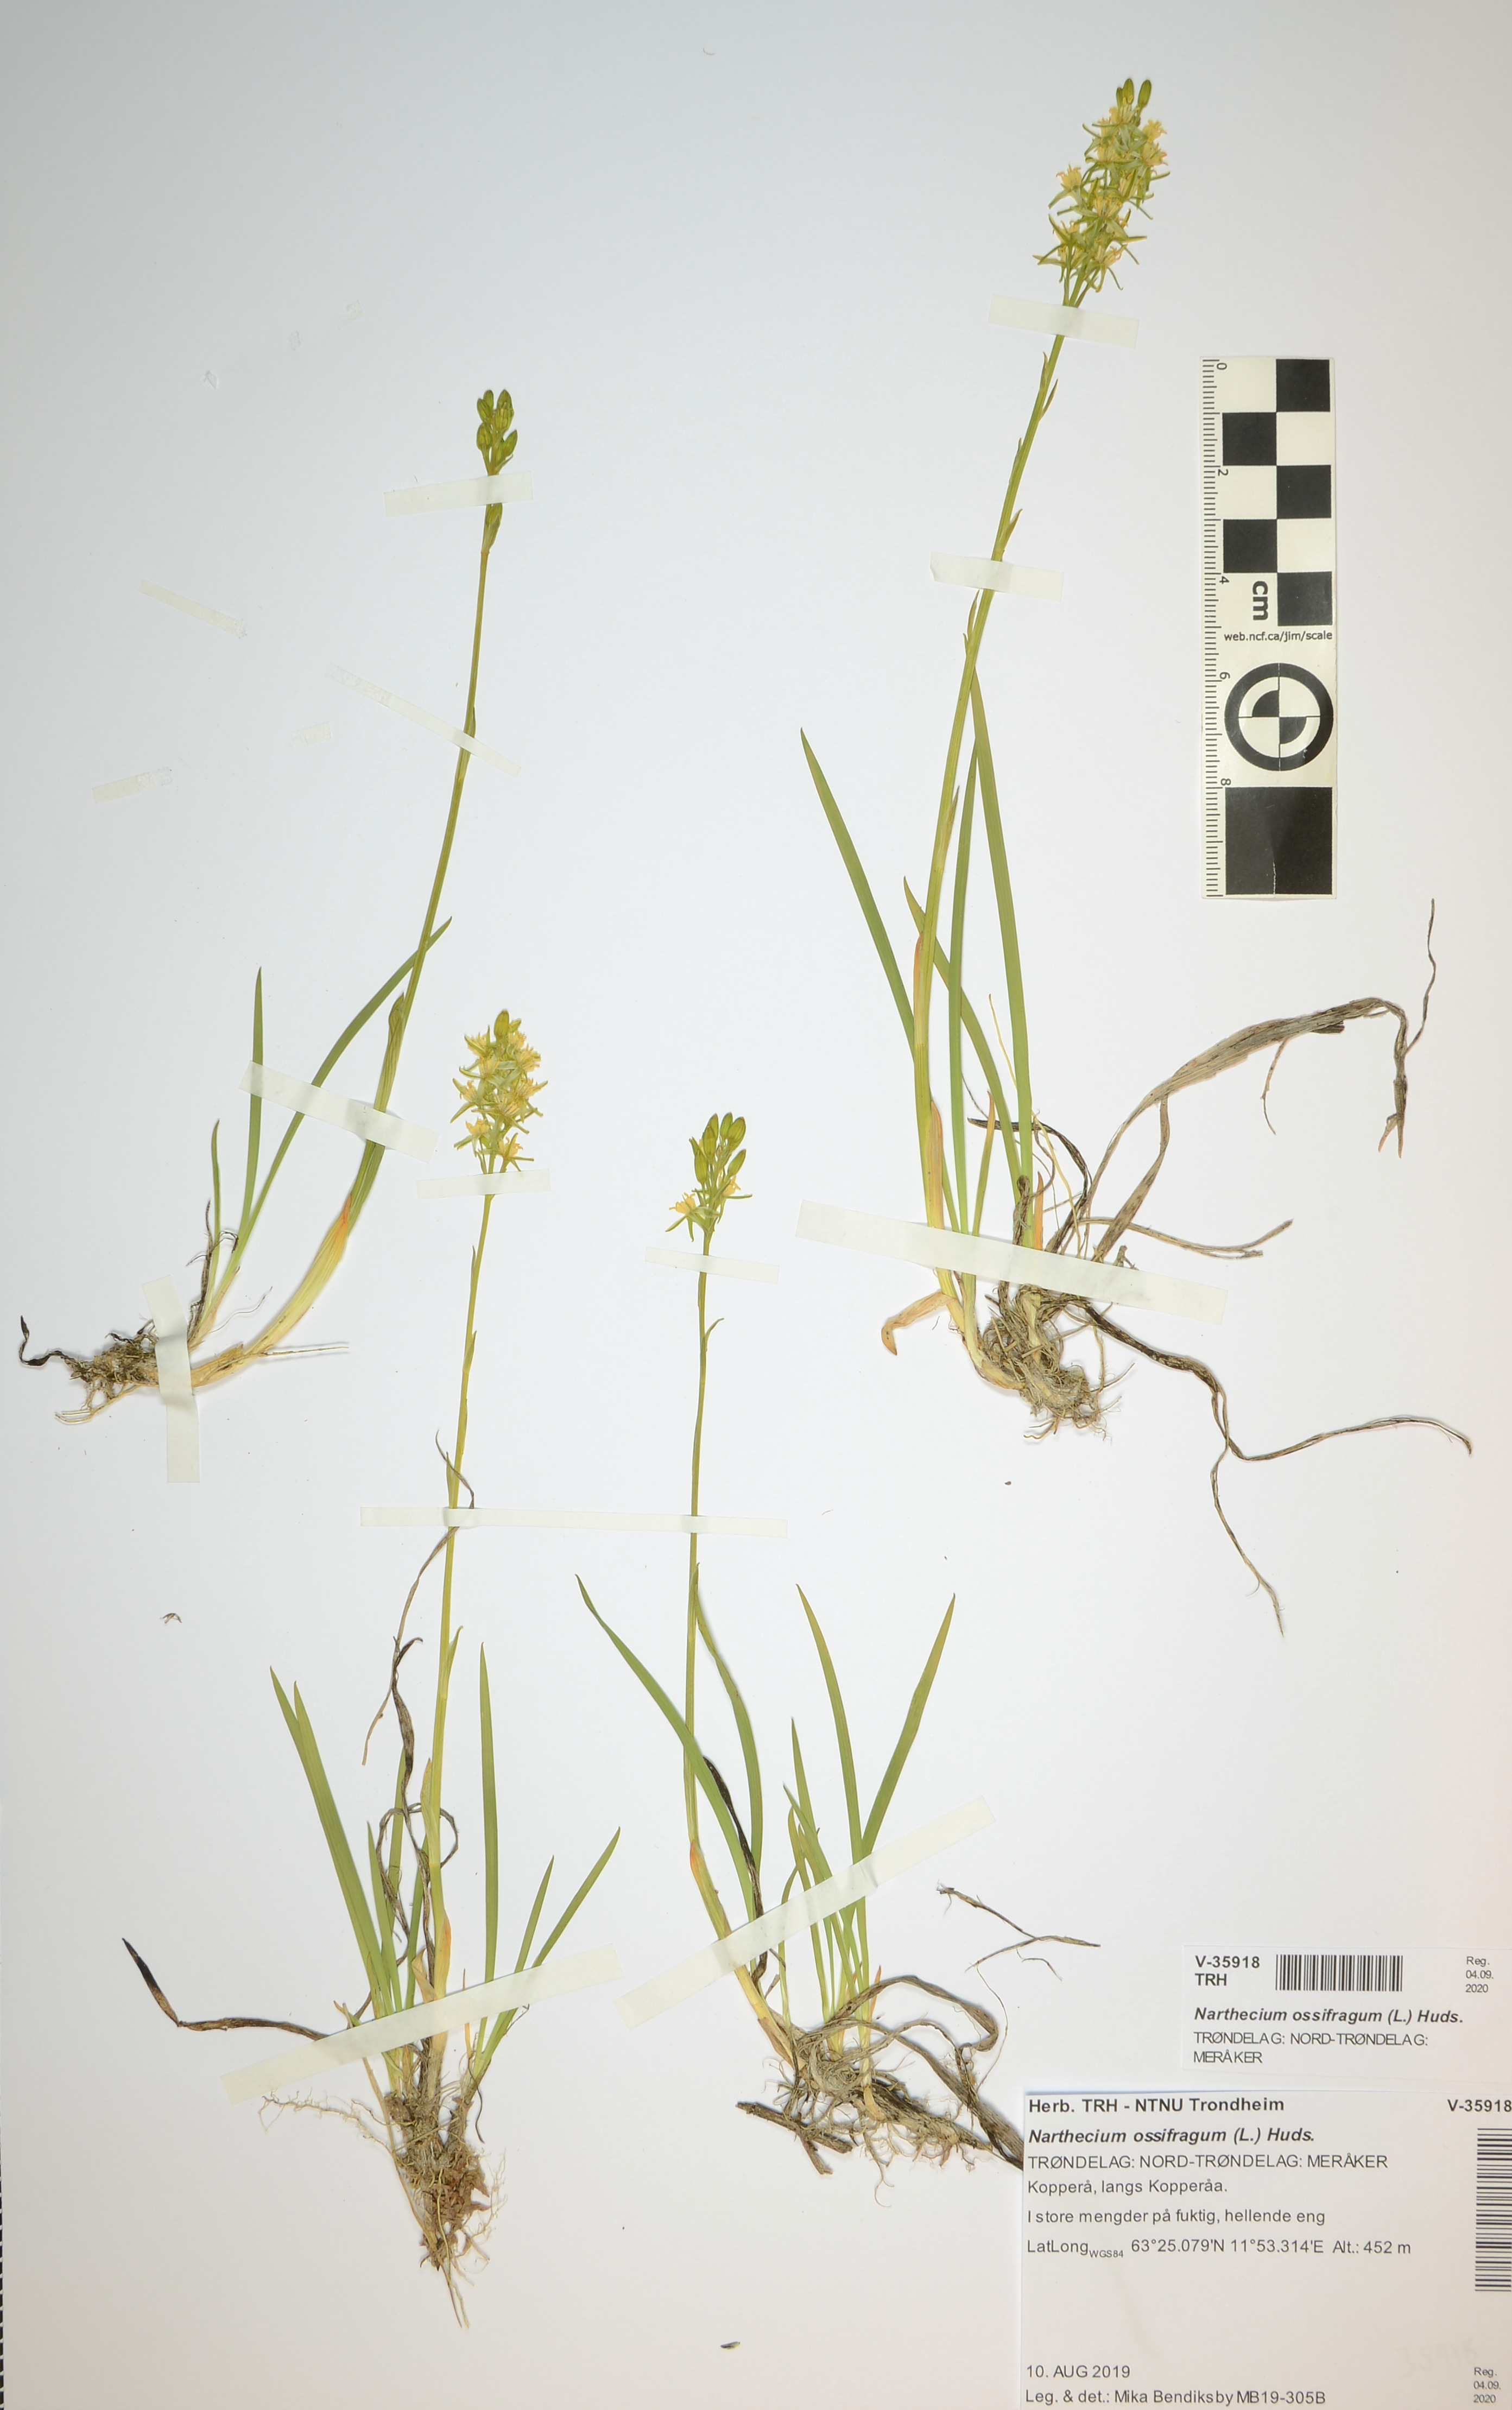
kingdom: Plantae
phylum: Tracheophyta
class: Liliopsida
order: Dioscoreales
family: Nartheciaceae
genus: Narthecium
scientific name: Narthecium ossifragum
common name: Bog asphodel
